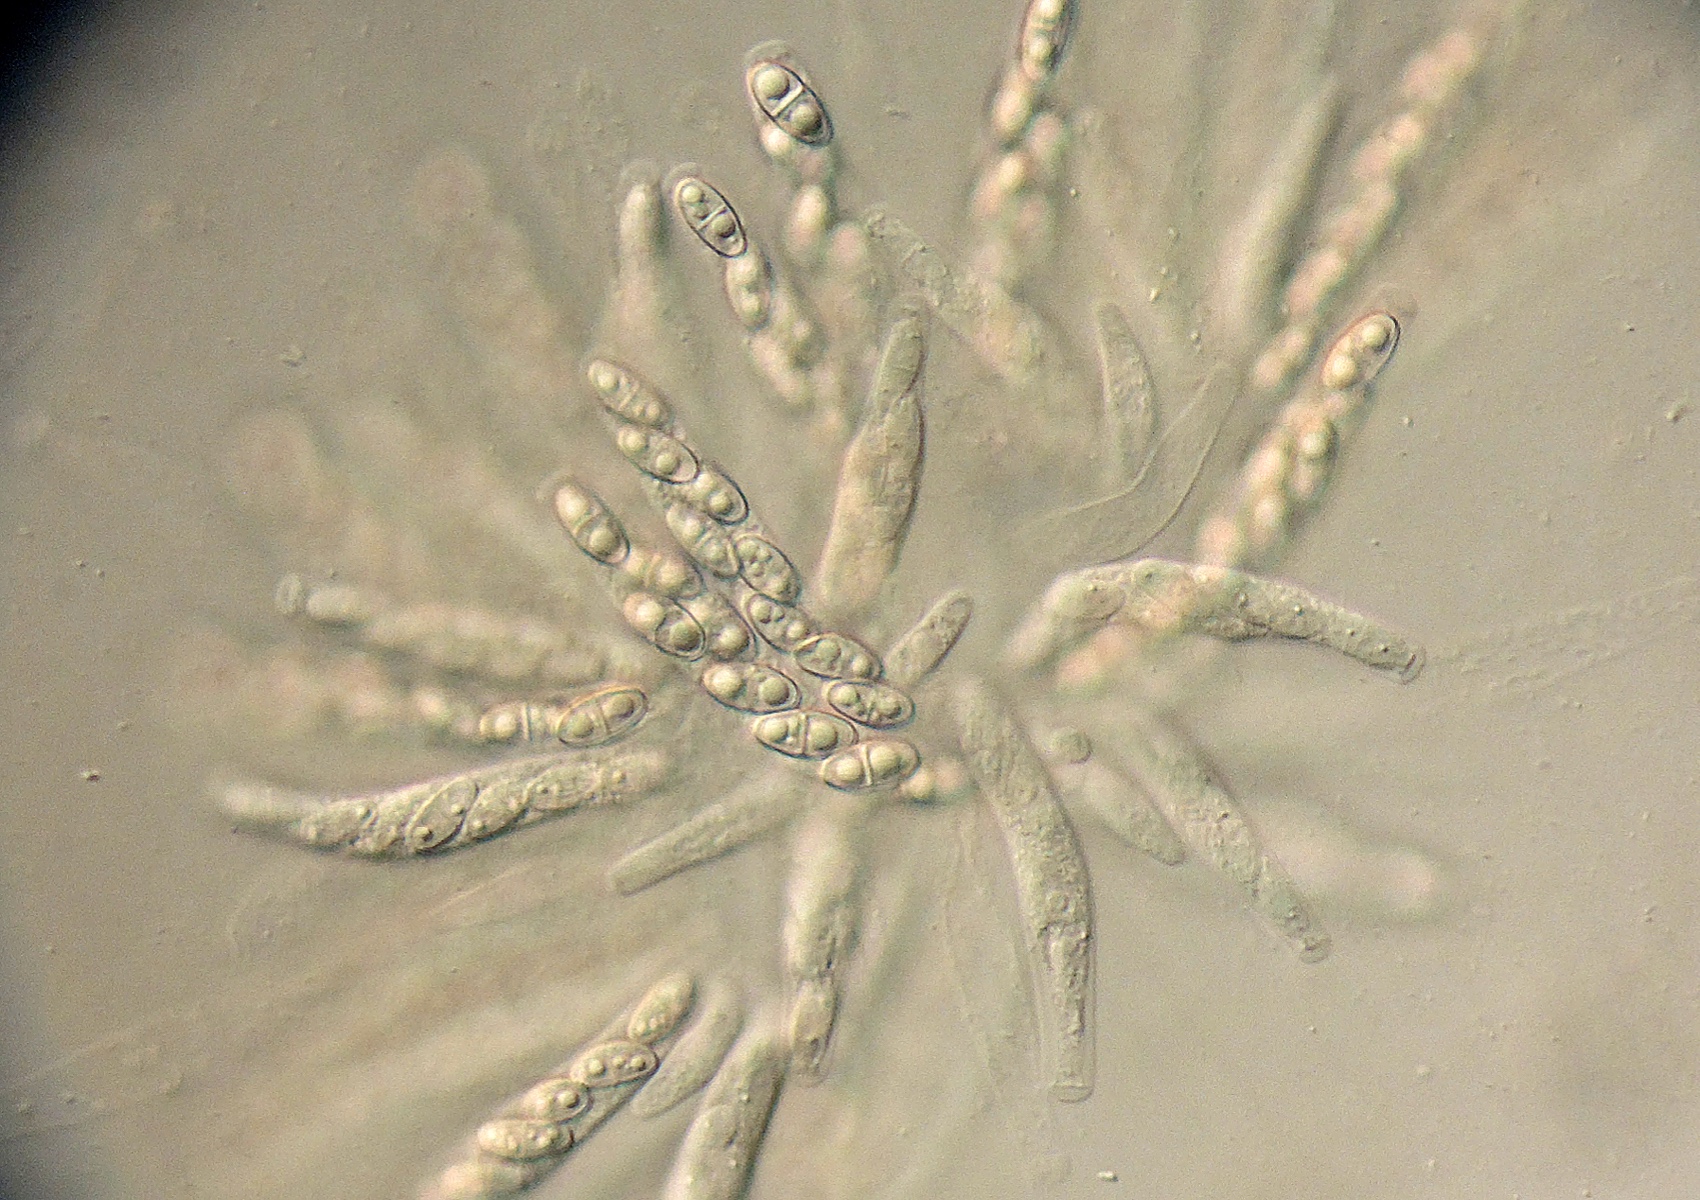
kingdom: Fungi
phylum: Ascomycota
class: Sordariomycetes
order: Hypocreales
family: Bionectriaceae
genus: Lasionectria
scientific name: Lasionectria
